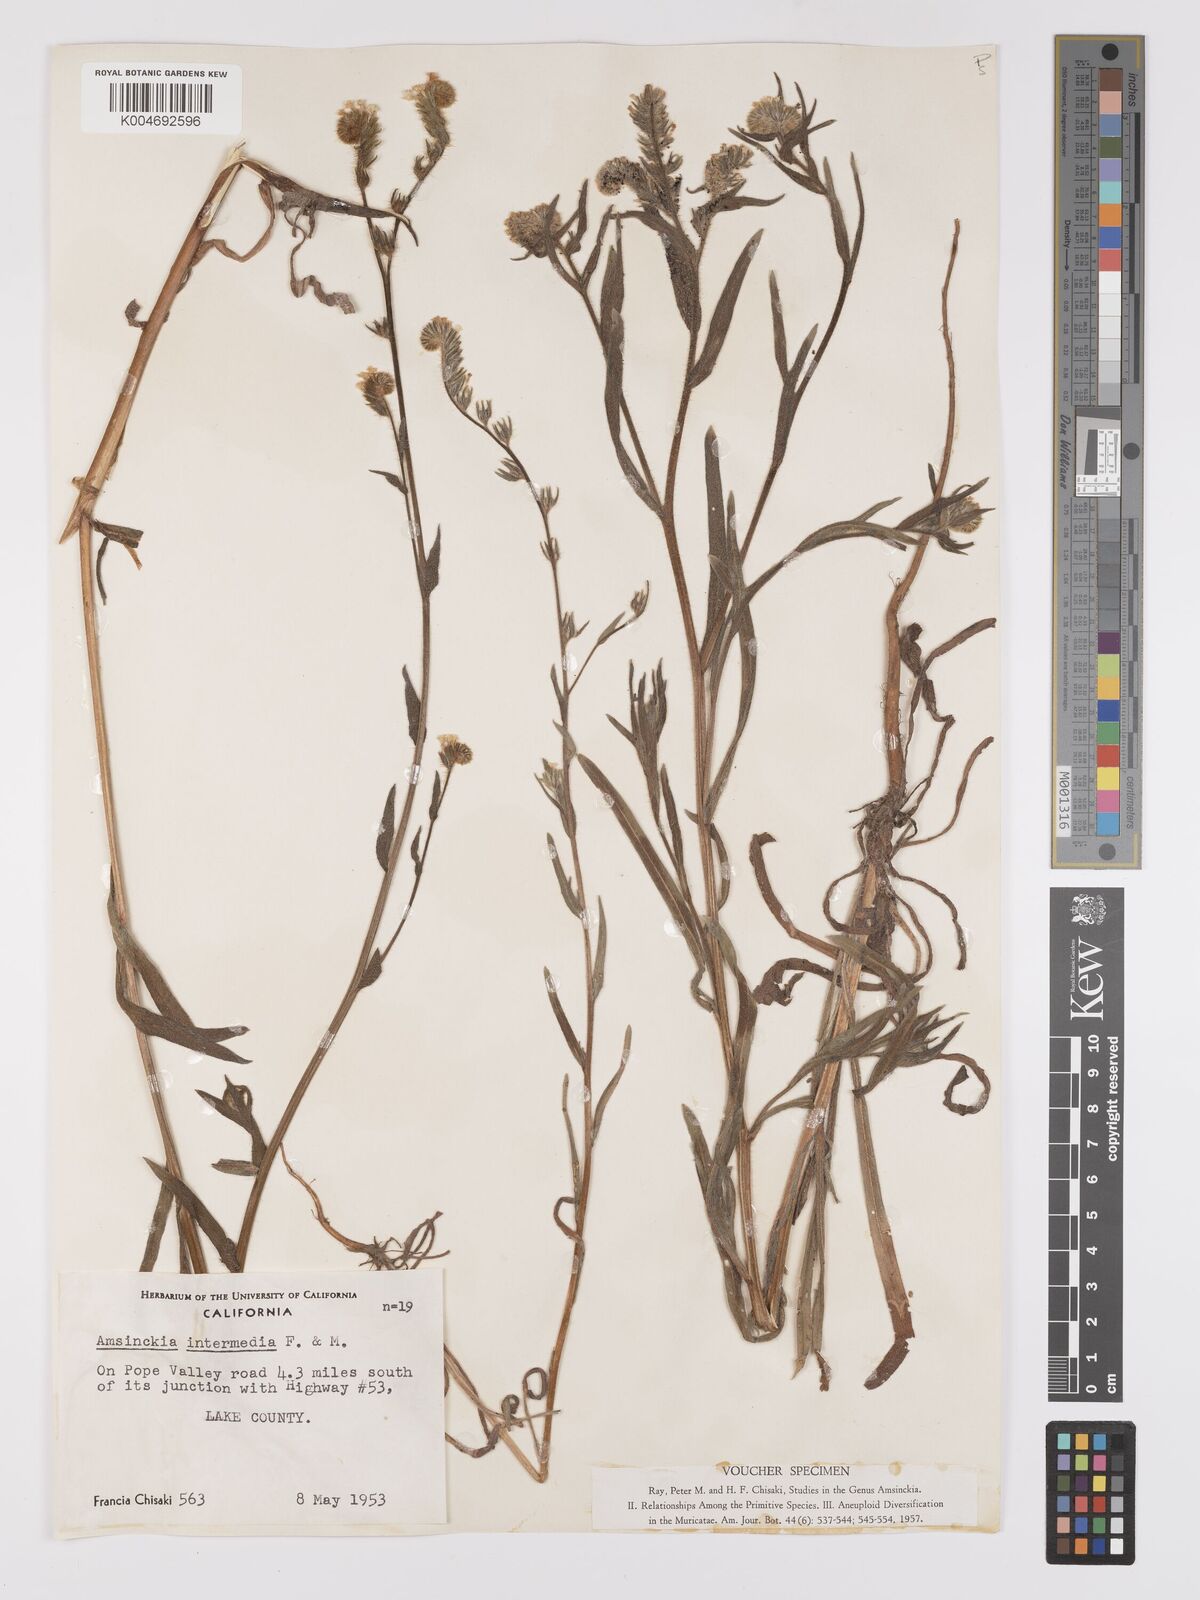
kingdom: Plantae
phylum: Tracheophyta
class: Magnoliopsida
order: Boraginales
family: Boraginaceae
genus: Amsinckia
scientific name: Amsinckia menziesii
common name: Menzies' fiddleneck
